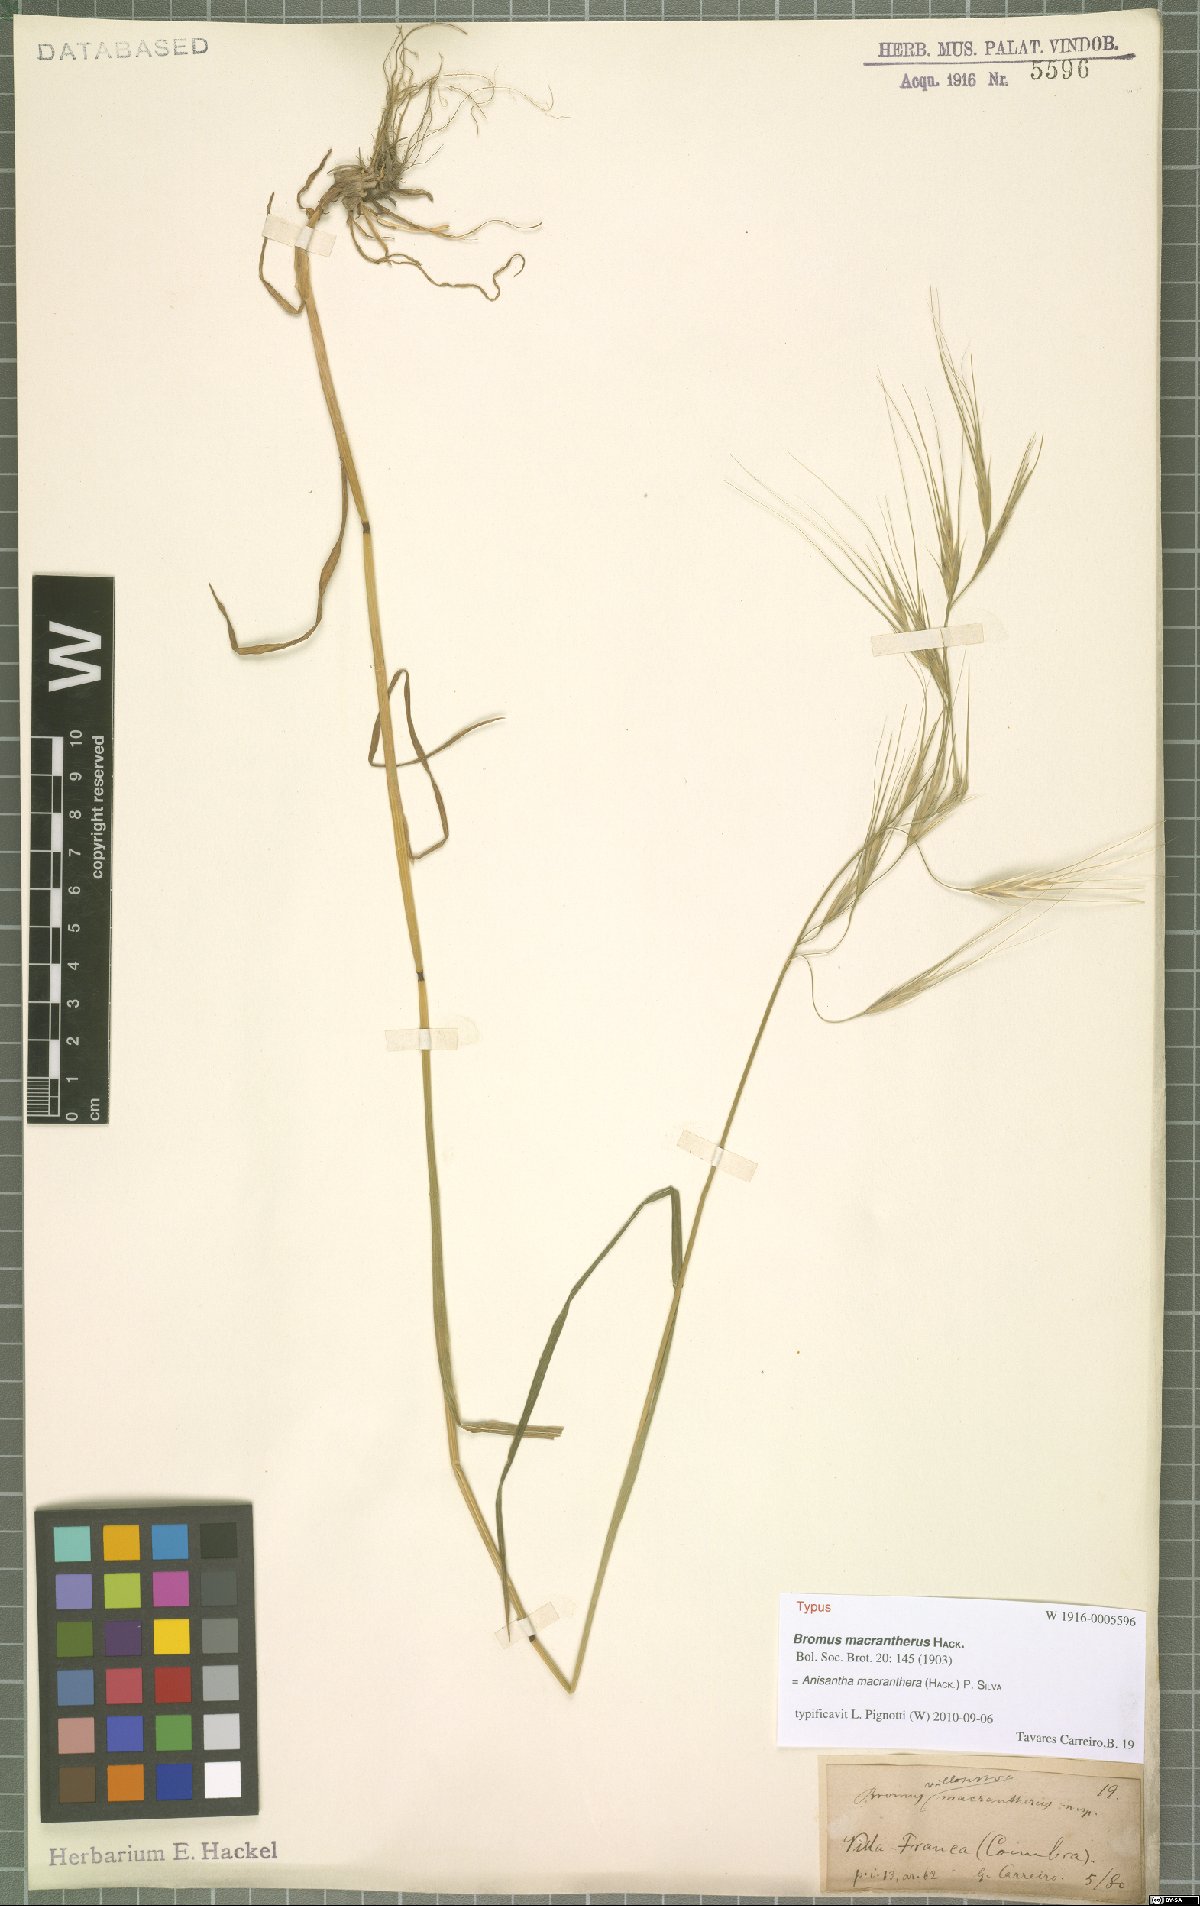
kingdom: Plantae
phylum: Tracheophyta
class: Liliopsida
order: Poales
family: Poaceae
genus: Bromus
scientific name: Bromus diandrus
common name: Ripgut brome
